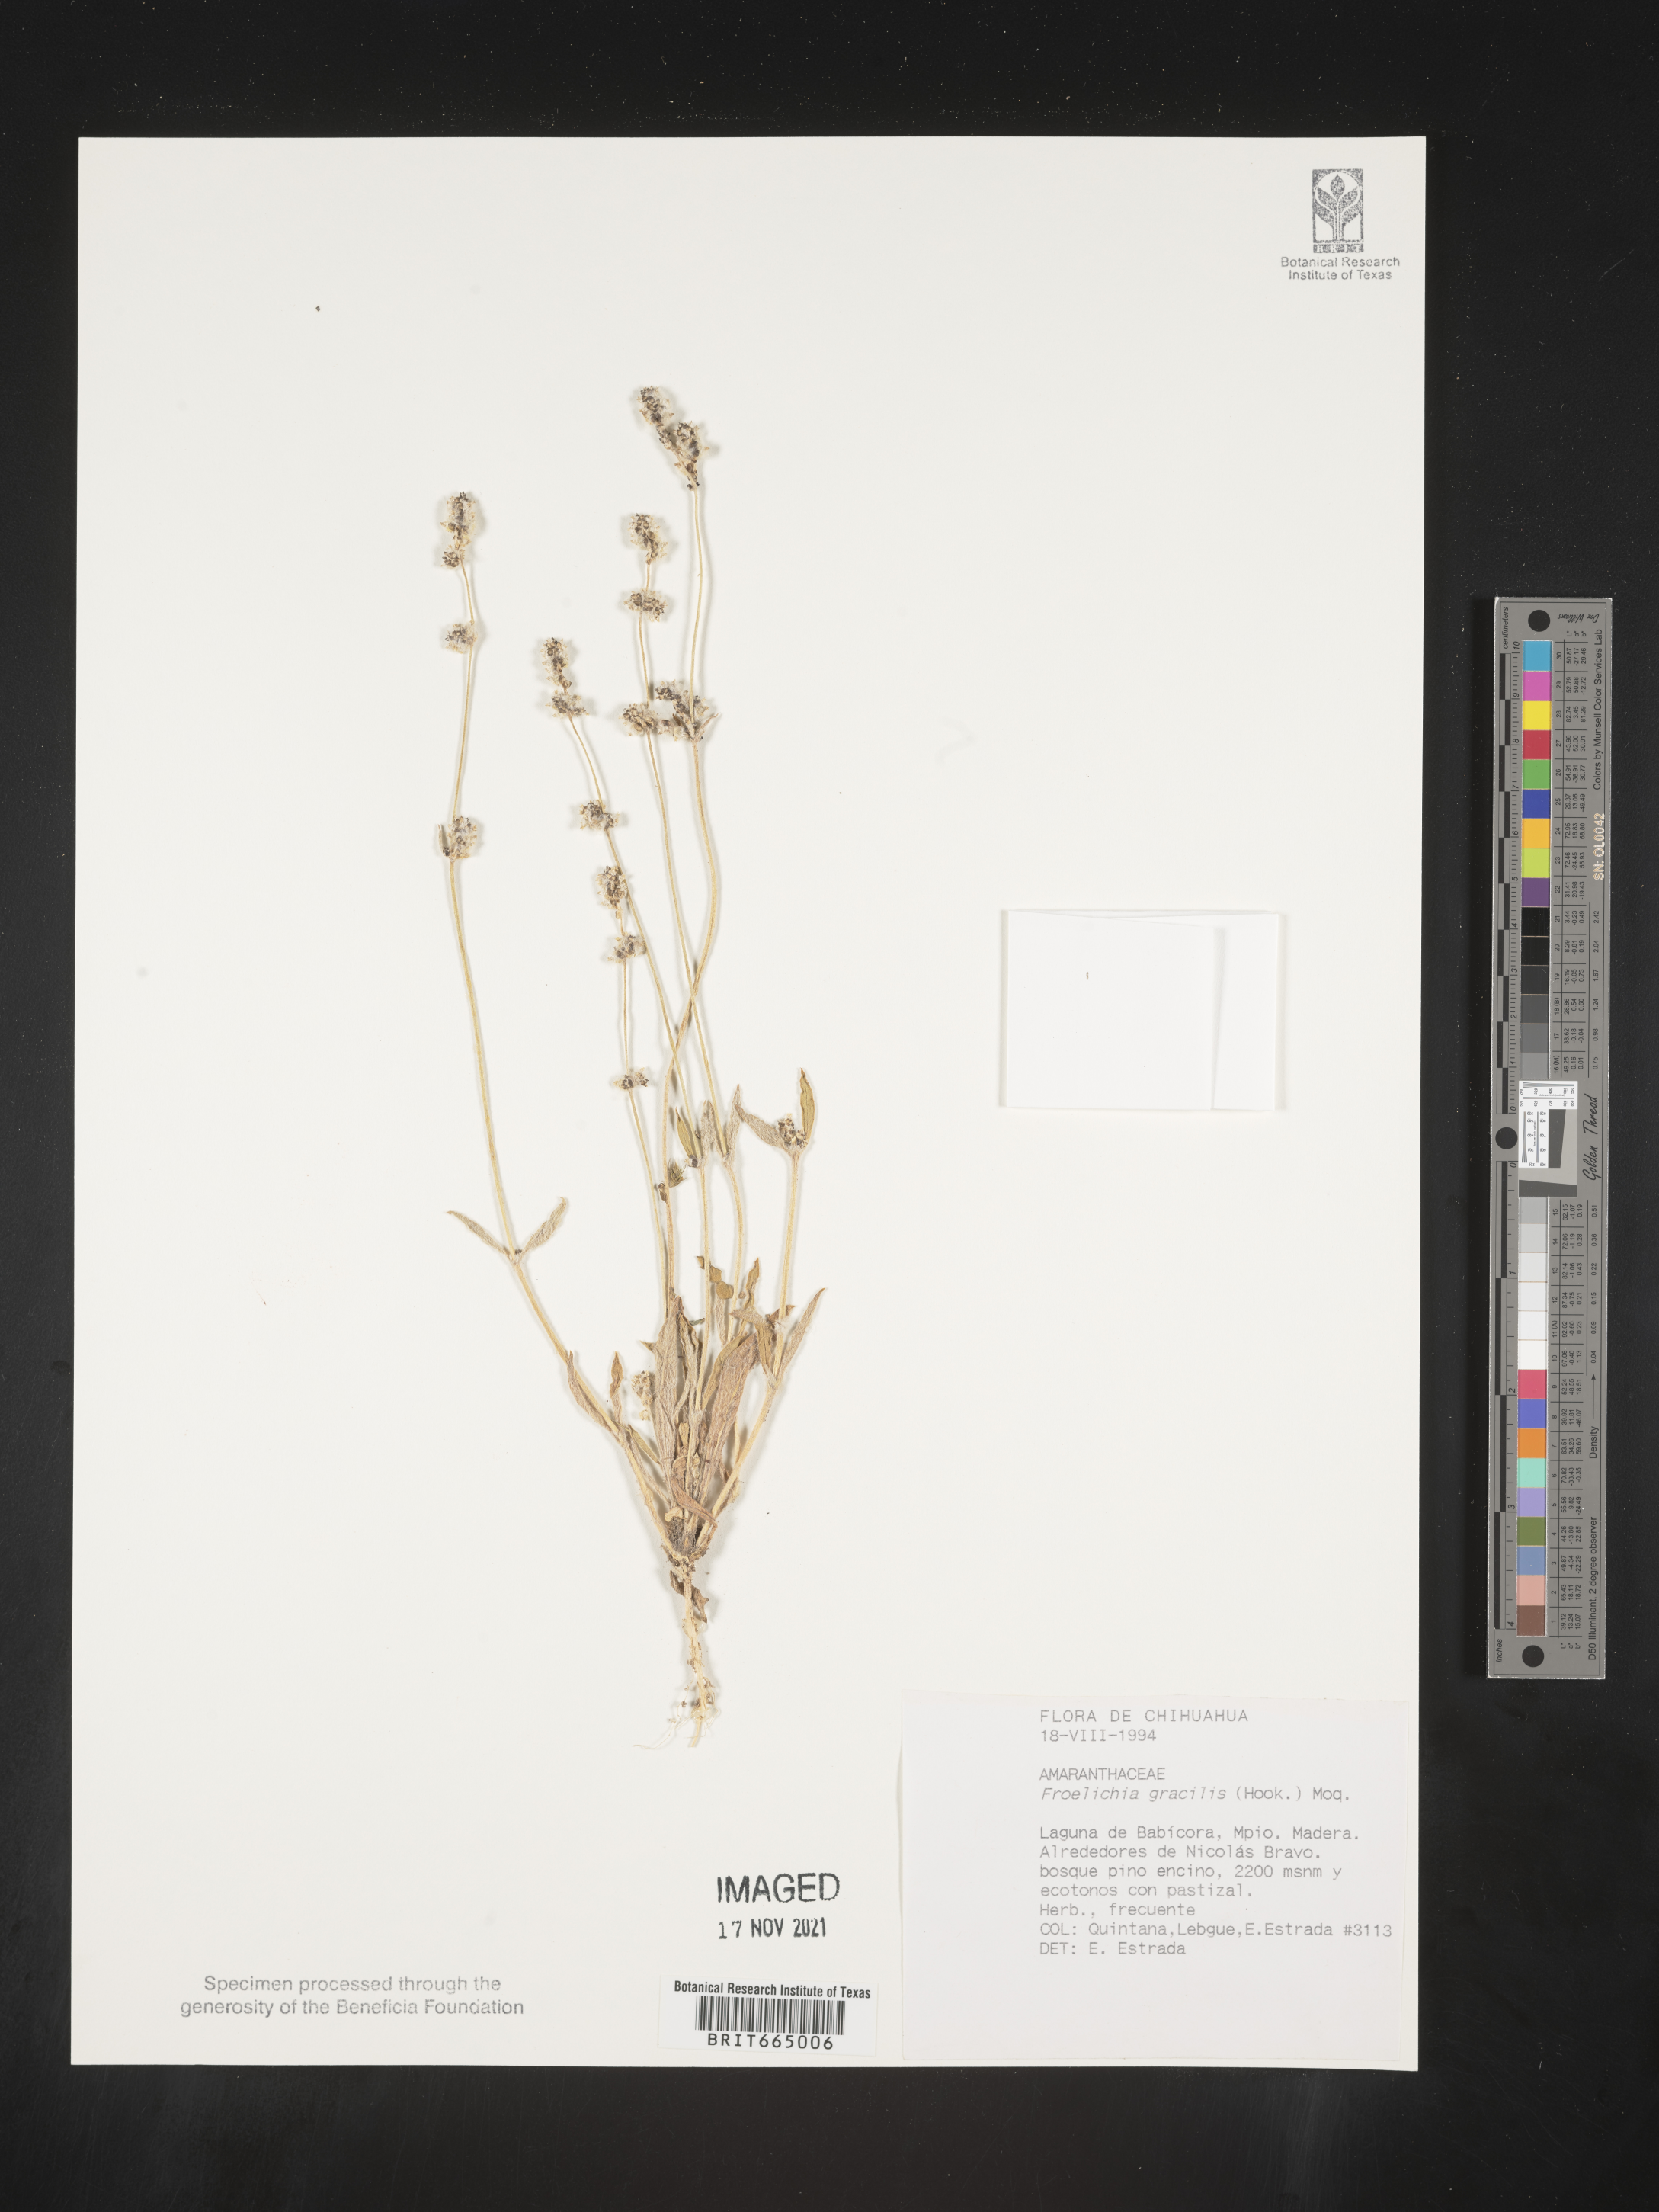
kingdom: Plantae
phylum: Tracheophyta
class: Magnoliopsida
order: Caryophyllales
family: Amaranthaceae
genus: Froelichia
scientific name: Froelichia
